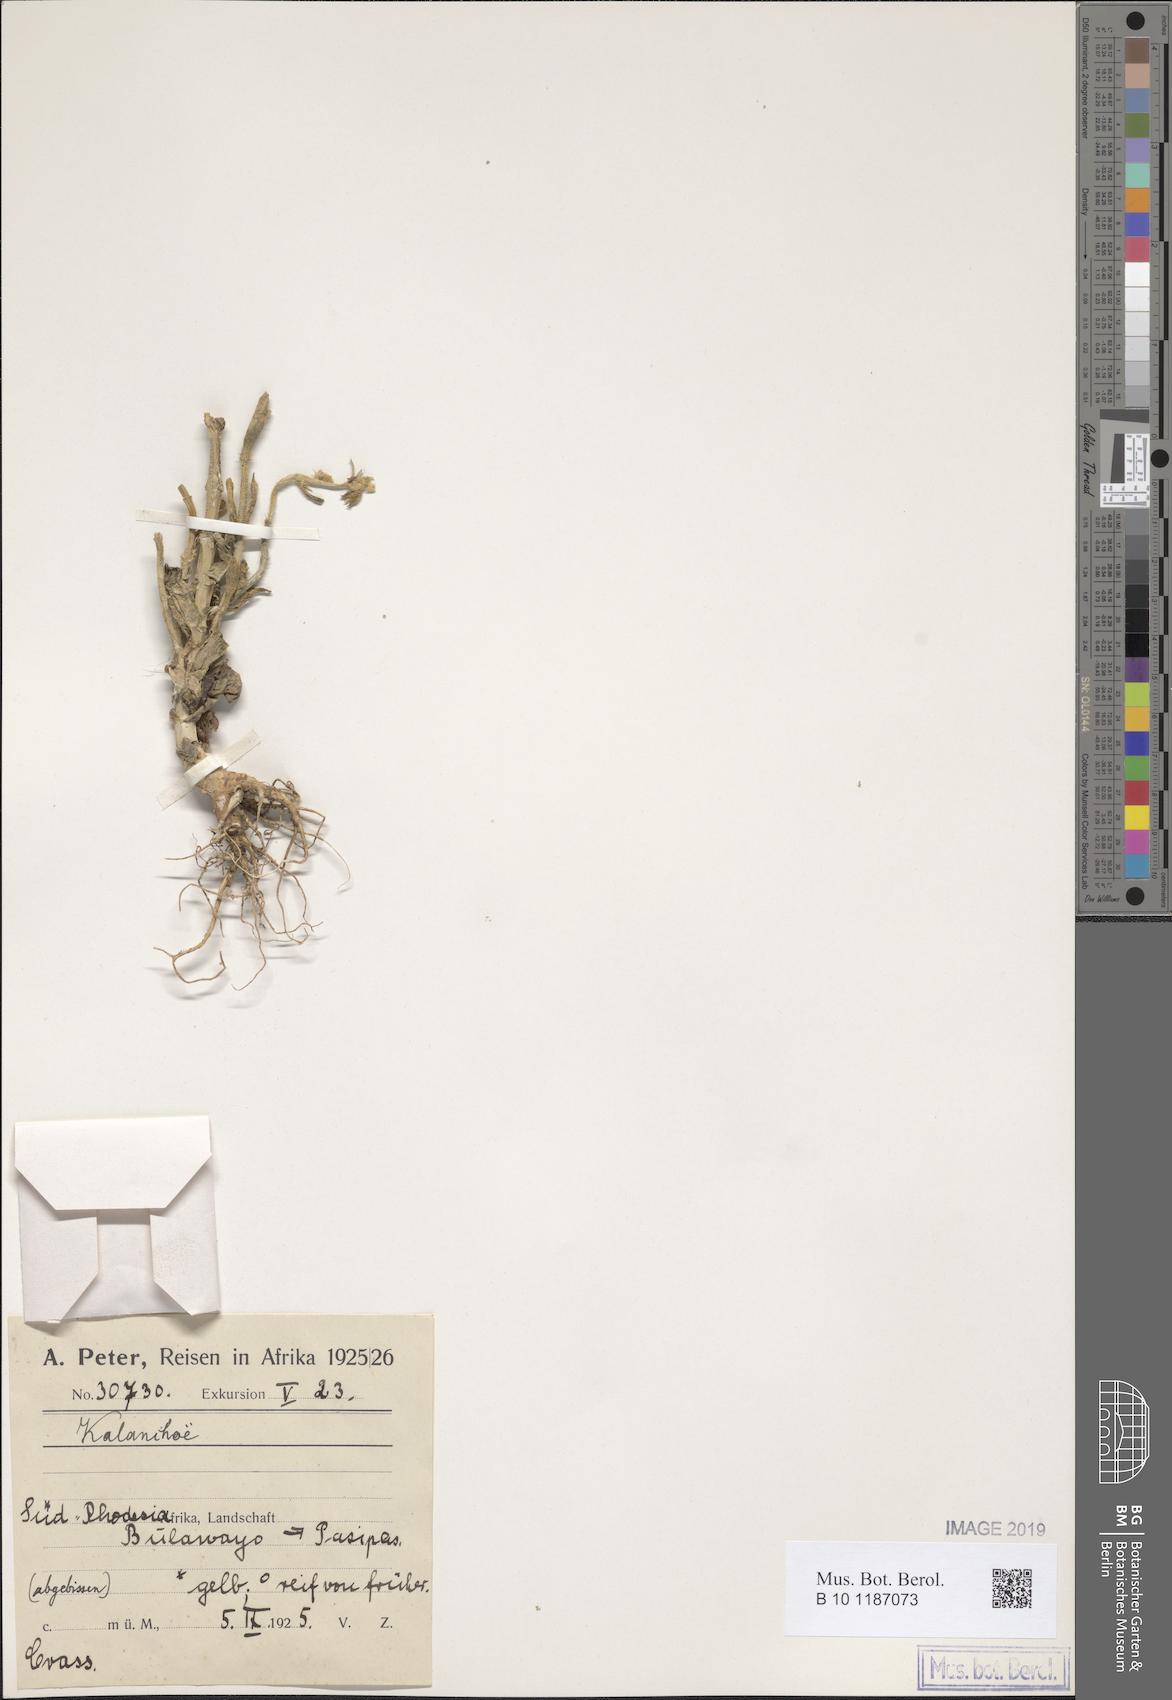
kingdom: Plantae
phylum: Tracheophyta
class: Magnoliopsida
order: Saxifragales
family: Crassulaceae
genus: Kalanchoe
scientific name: Kalanchoe
